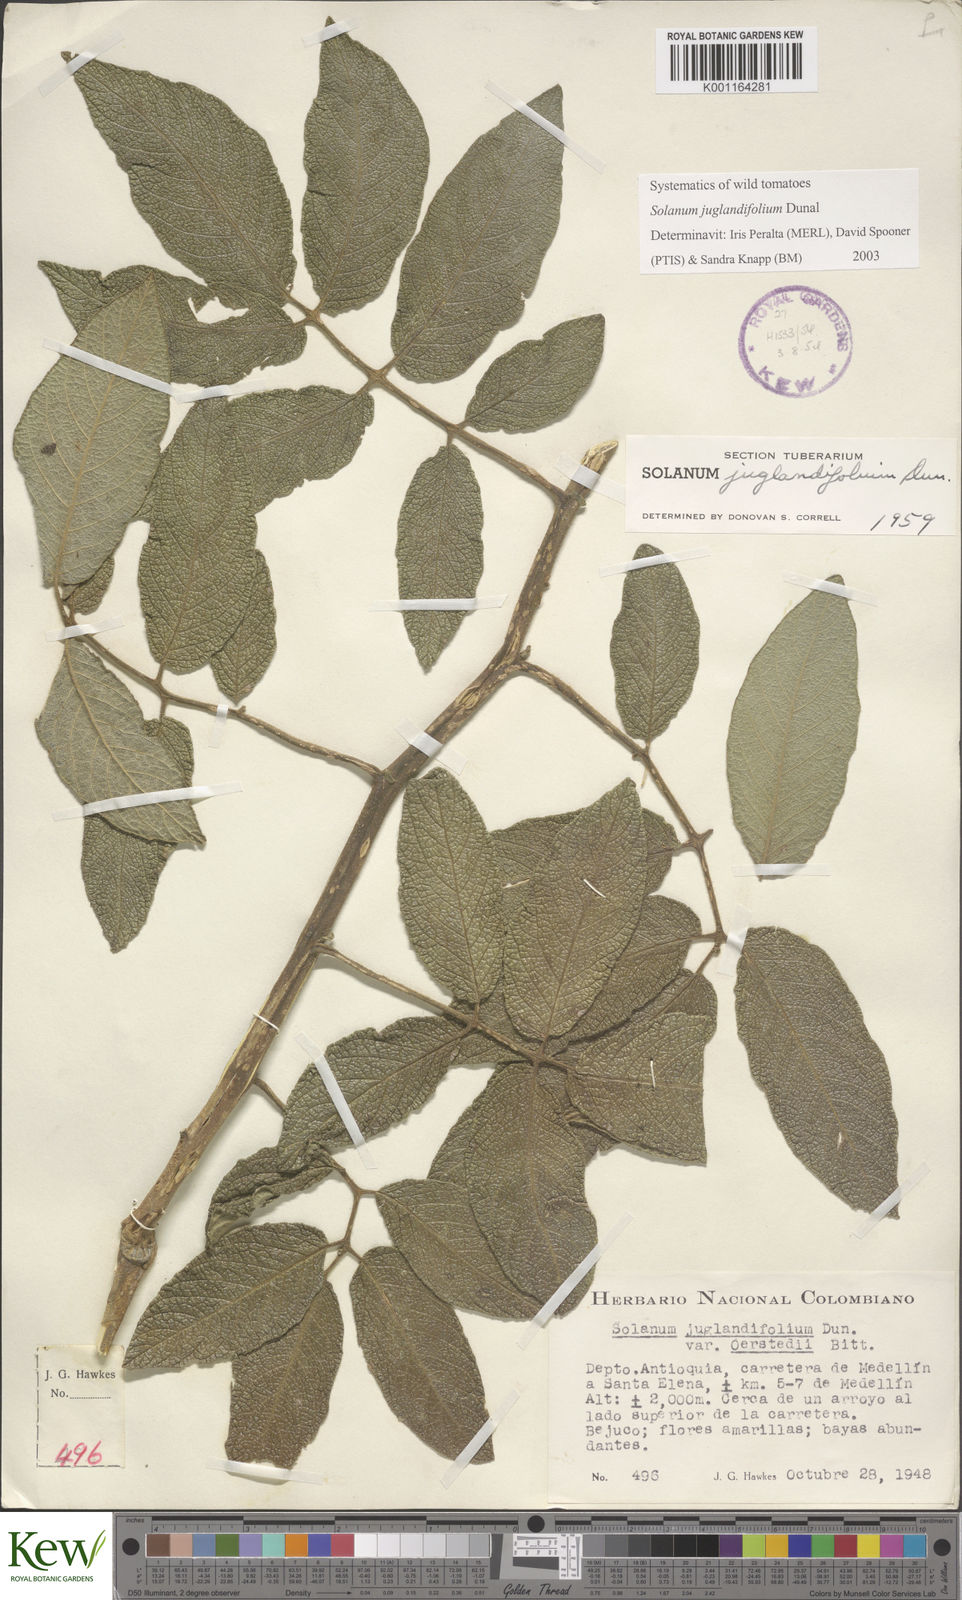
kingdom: Plantae
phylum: Tracheophyta
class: Magnoliopsida
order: Solanales
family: Solanaceae
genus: Solanum
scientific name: Solanum juglandifolium
